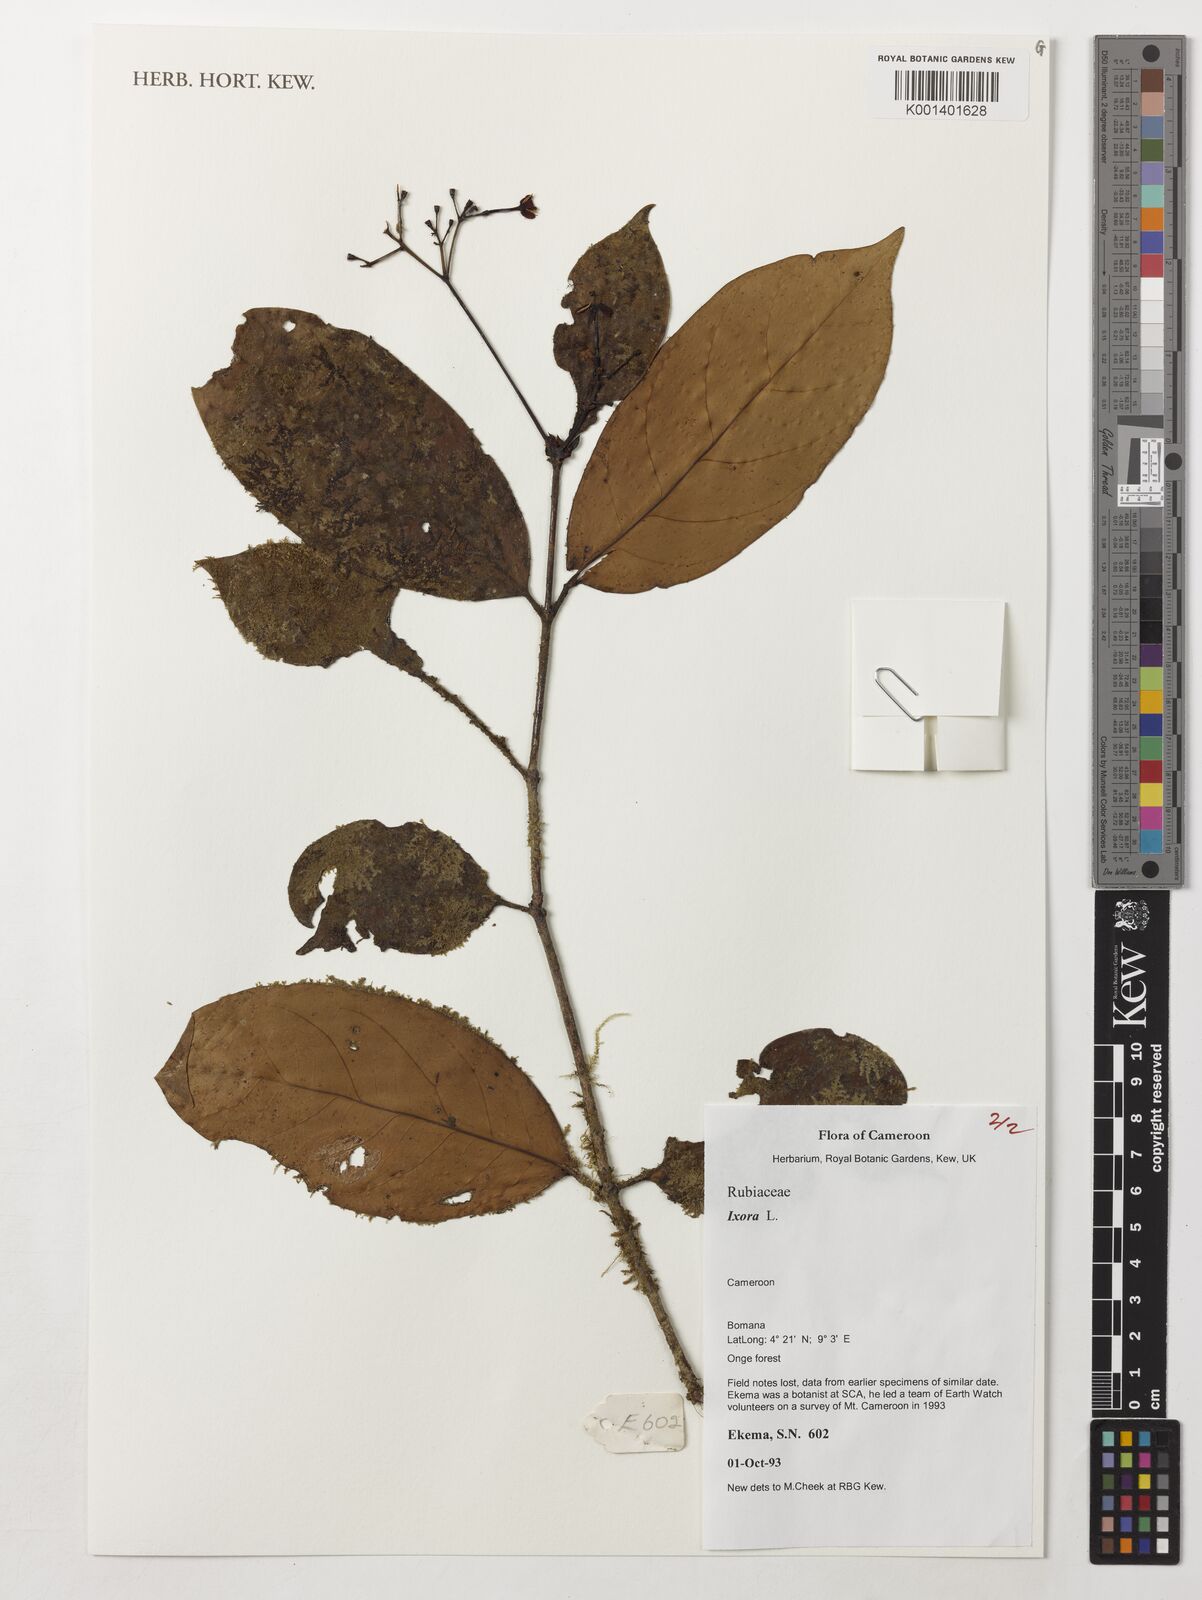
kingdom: Plantae
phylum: Tracheophyta
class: Magnoliopsida
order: Gentianales
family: Rubiaceae
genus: Ixora
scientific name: Ixora
